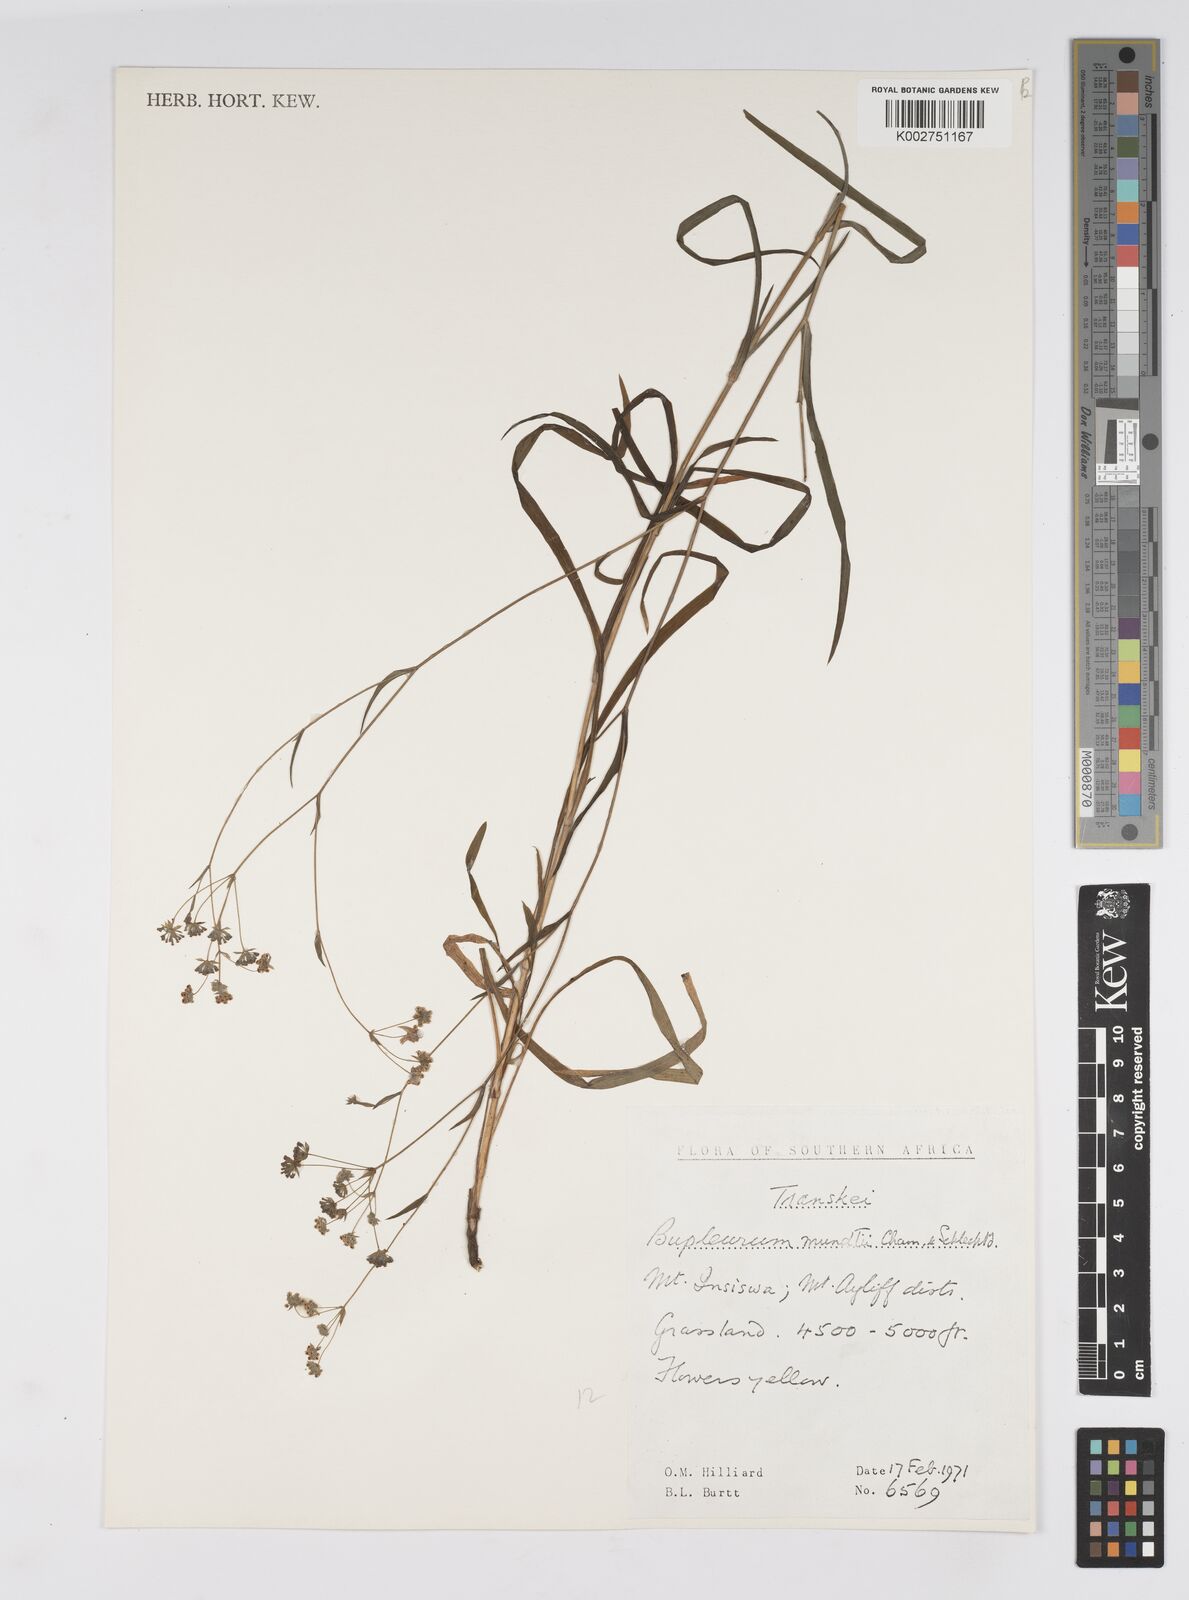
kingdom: Plantae
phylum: Tracheophyta
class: Magnoliopsida
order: Apiales
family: Apiaceae
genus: Bupleurum
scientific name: Bupleurum mundii
